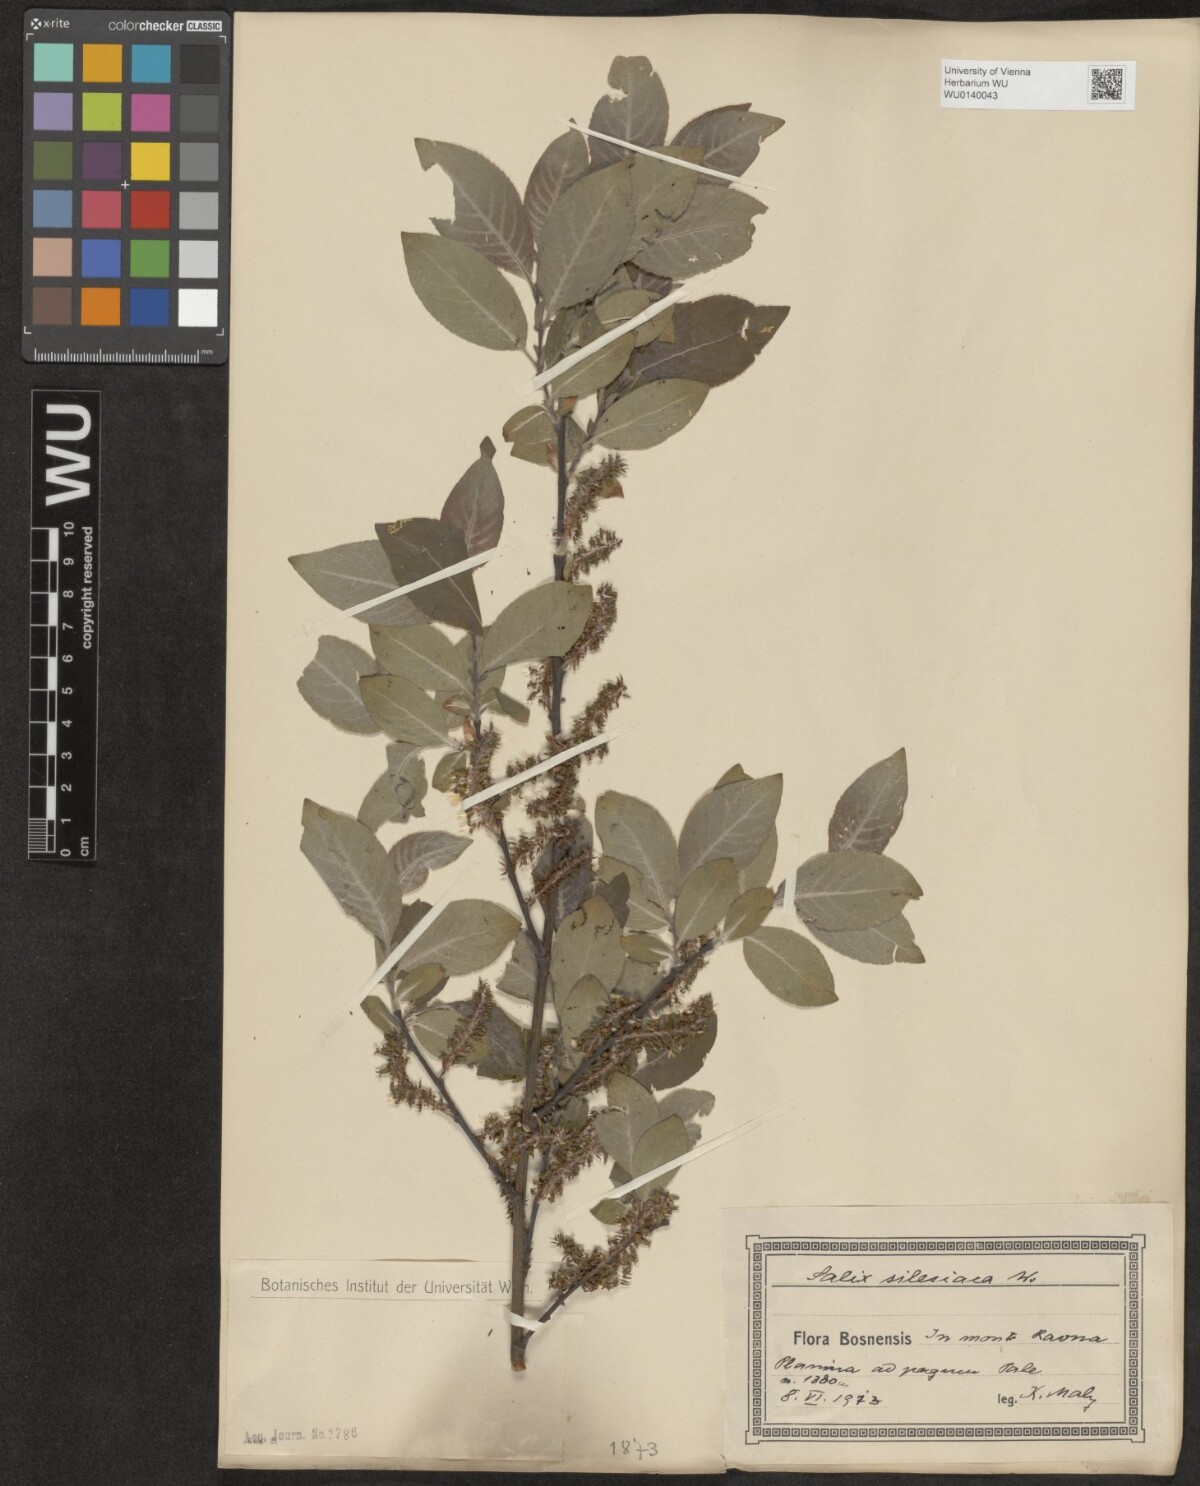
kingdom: Plantae
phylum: Tracheophyta
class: Magnoliopsida
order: Malpighiales
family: Salicaceae
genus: Salix
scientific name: Salix silesiaca
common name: Silesian willow
